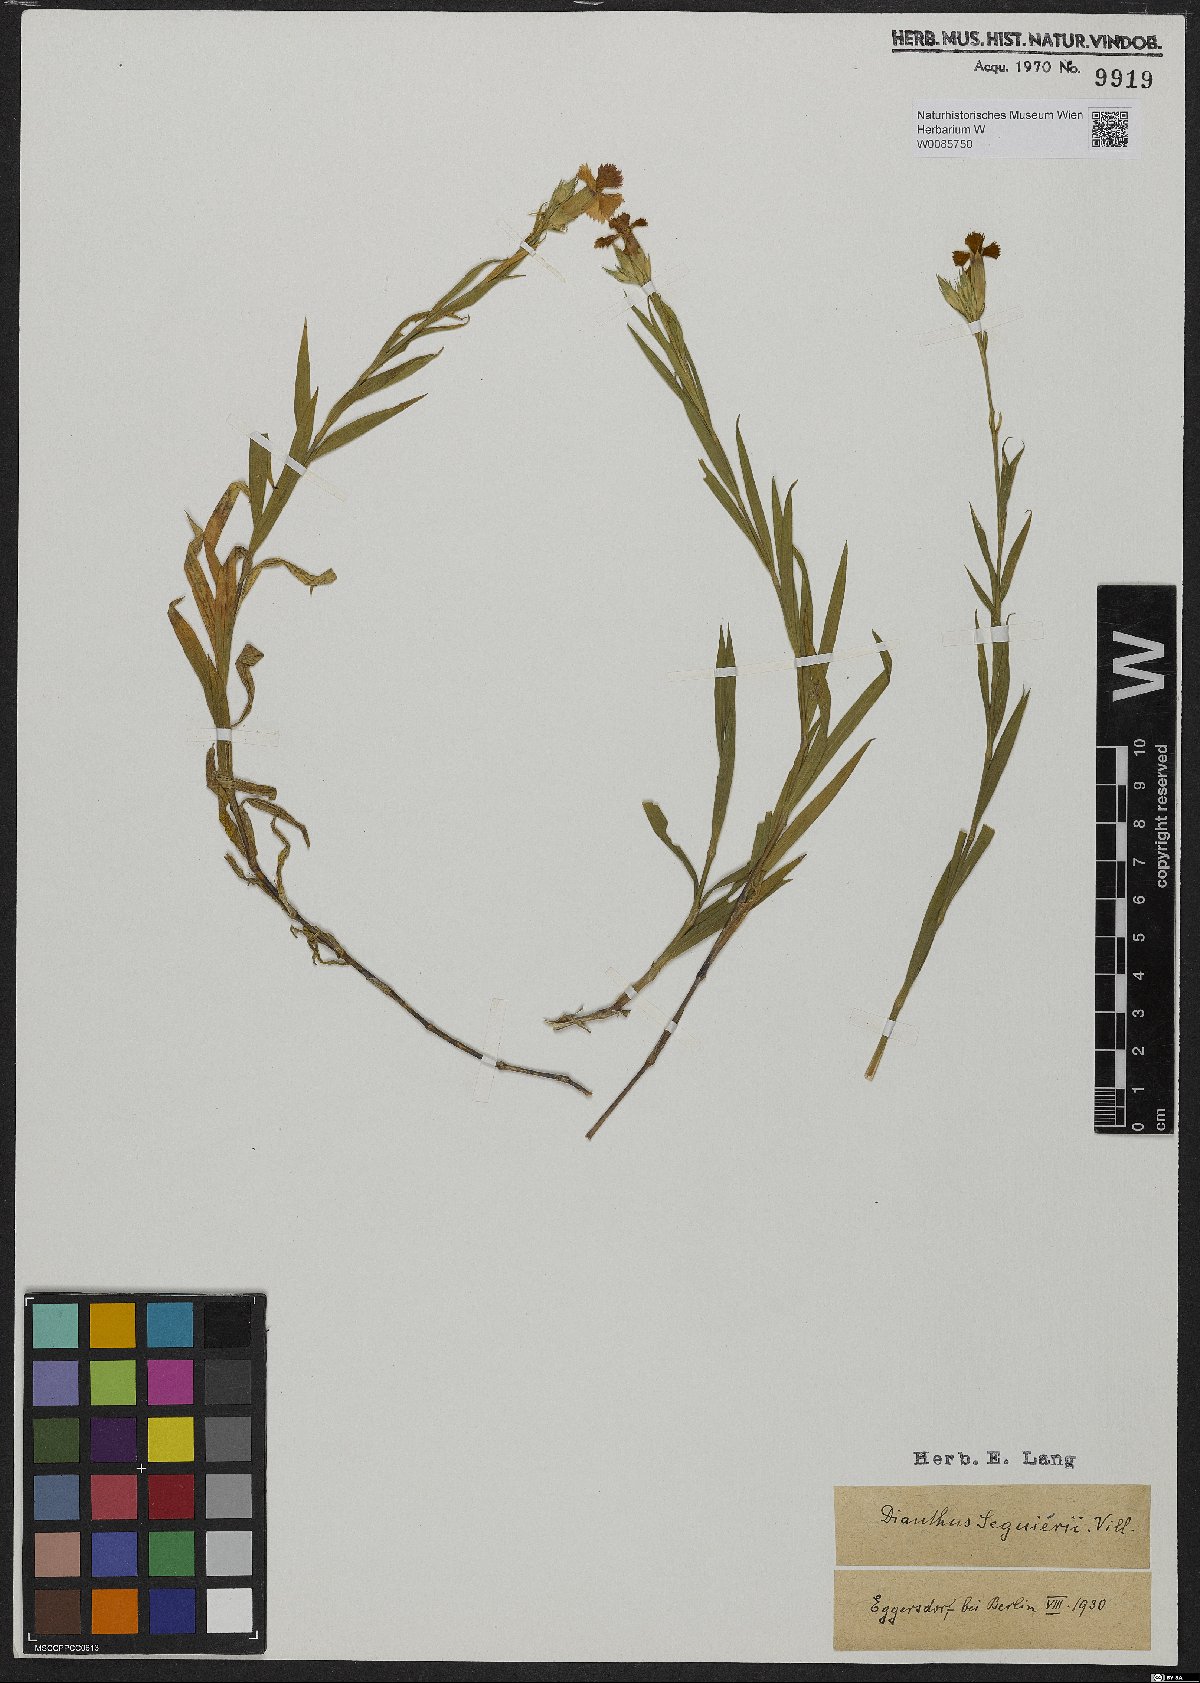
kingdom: Plantae
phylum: Tracheophyta
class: Magnoliopsida
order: Caryophyllales
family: Caryophyllaceae
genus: Dianthus
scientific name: Dianthus seguieri
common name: Ragged pink
